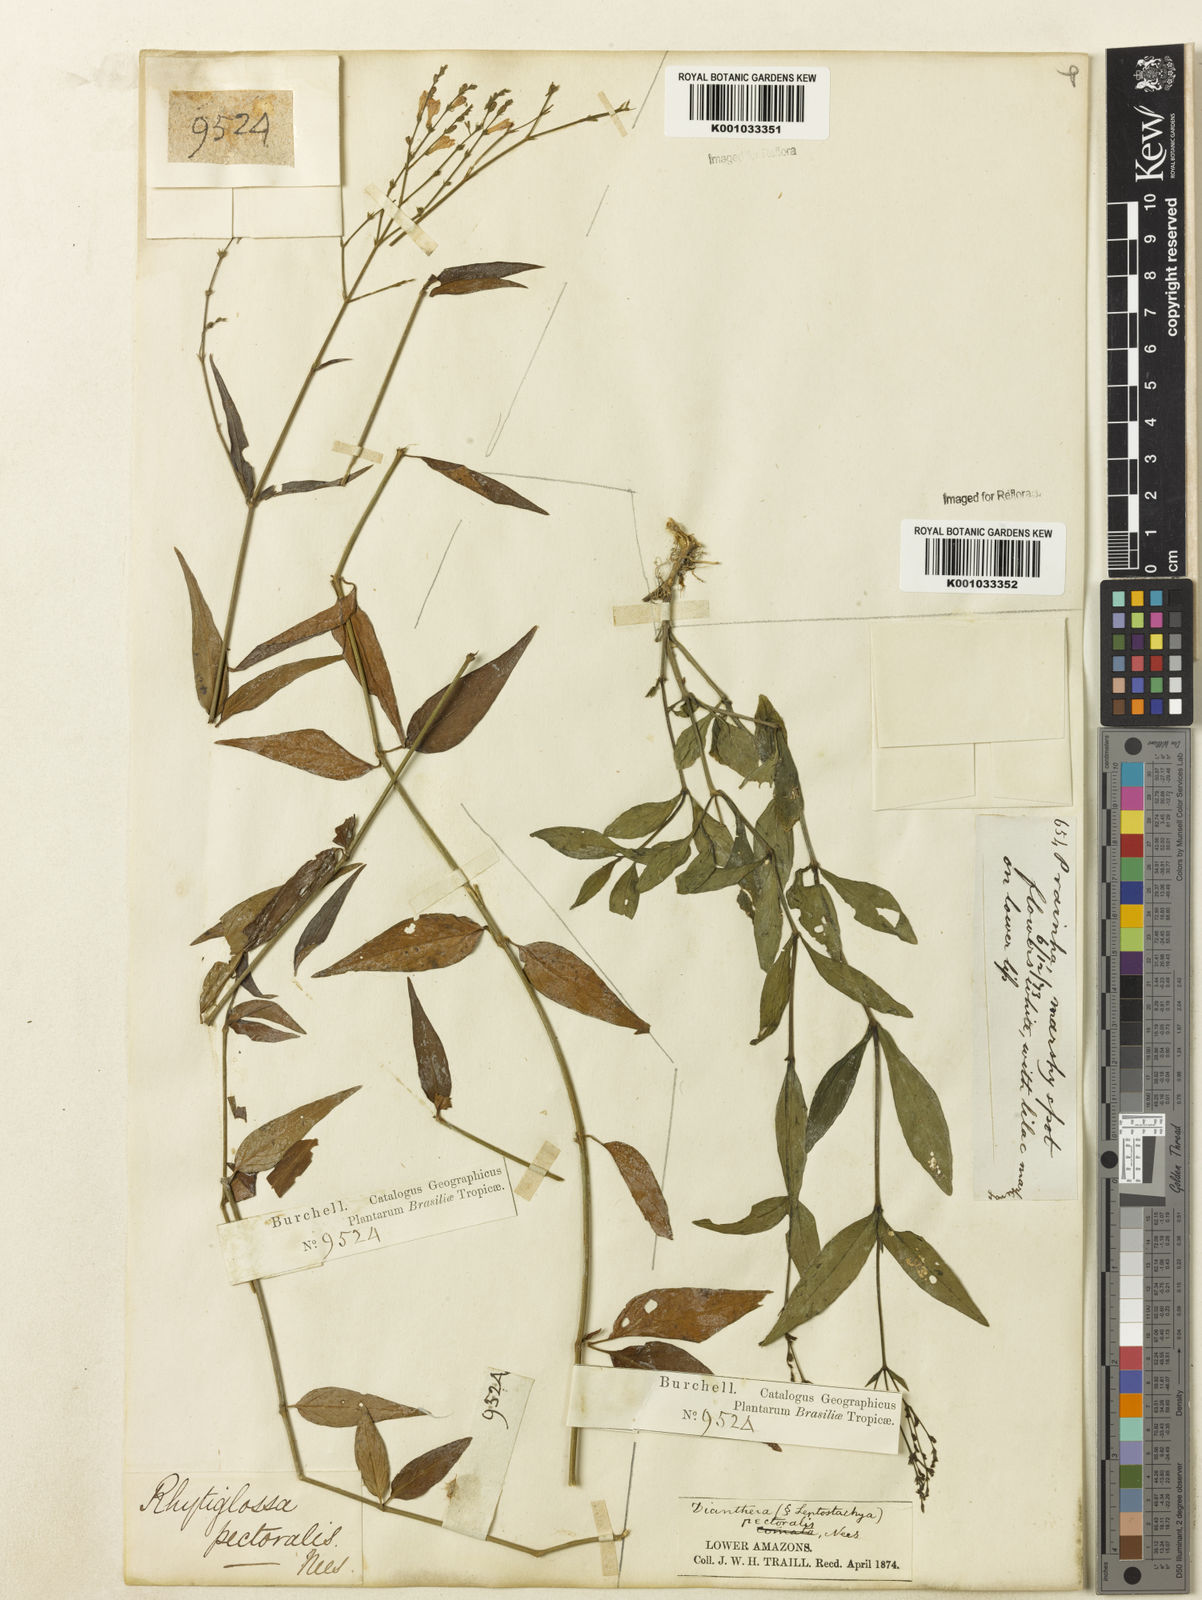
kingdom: Plantae
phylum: Tracheophyta
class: Magnoliopsida
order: Lamiales
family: Acanthaceae
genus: Dianthera
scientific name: Dianthera pectoralis
